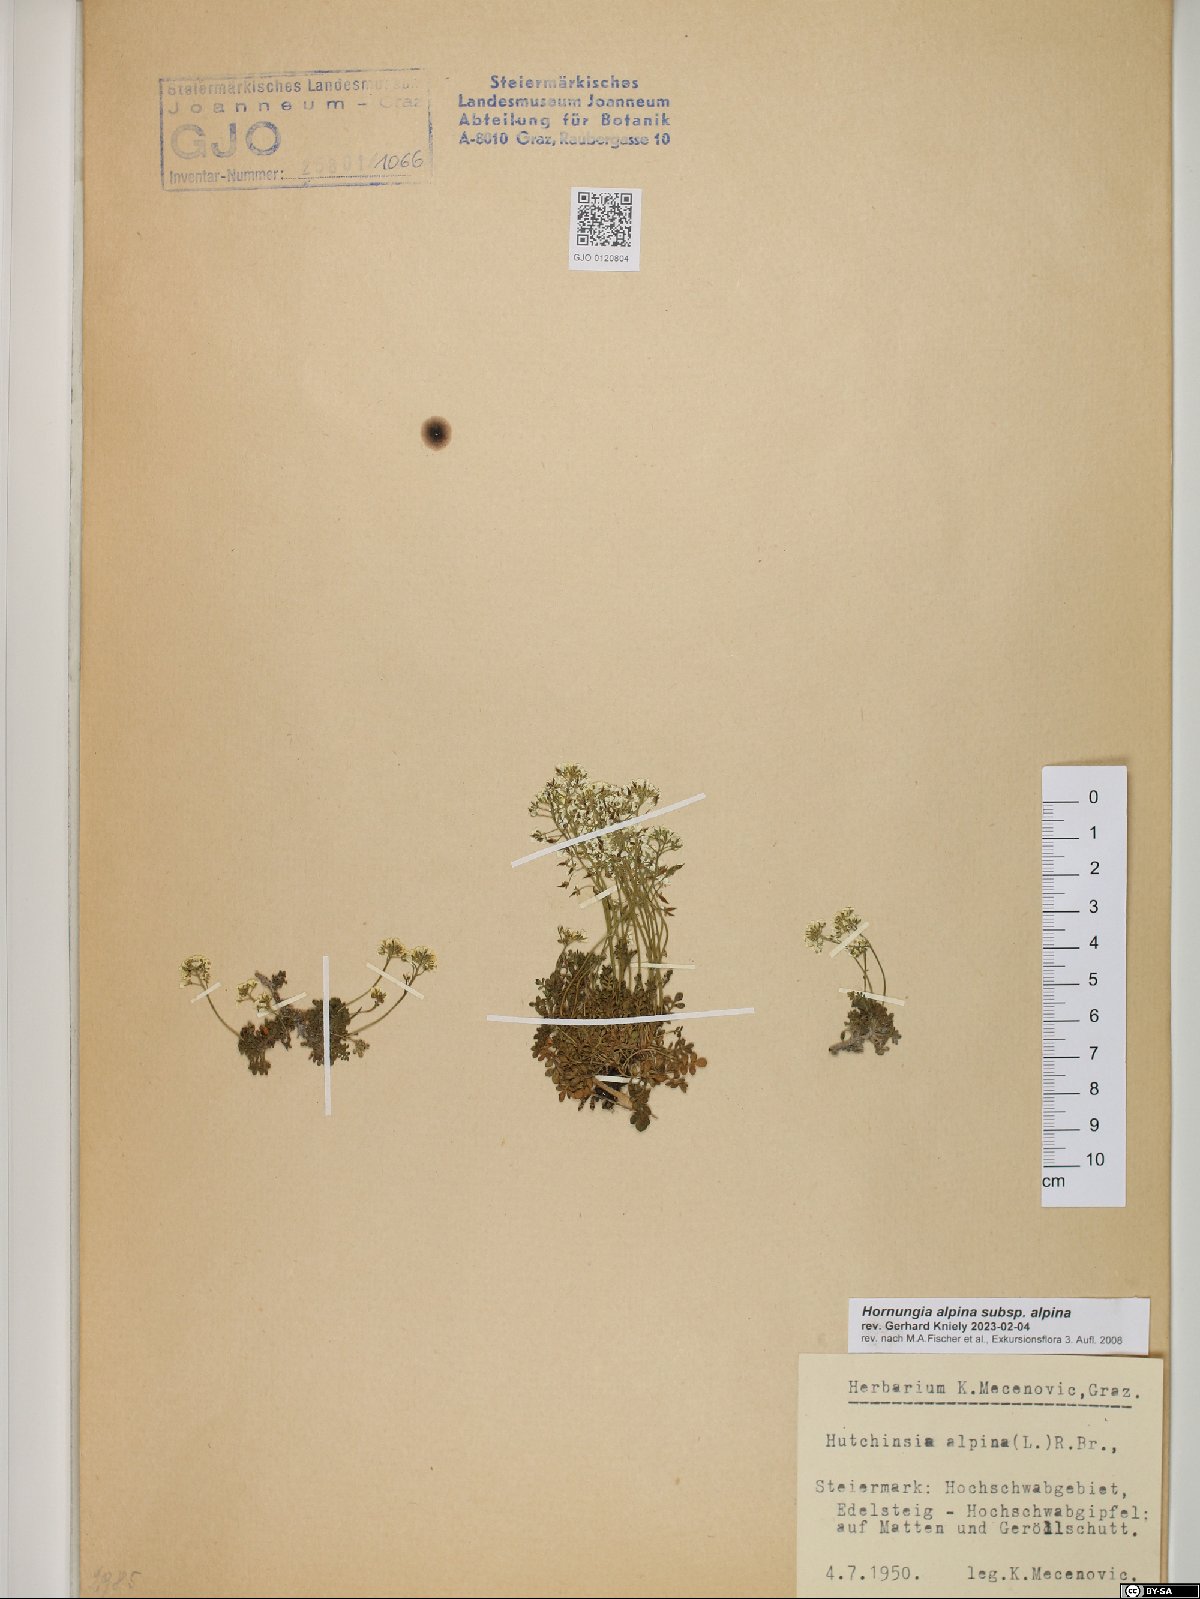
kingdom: Plantae
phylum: Tracheophyta
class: Magnoliopsida
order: Brassicales
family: Brassicaceae
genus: Hornungia
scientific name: Hornungia alpina
